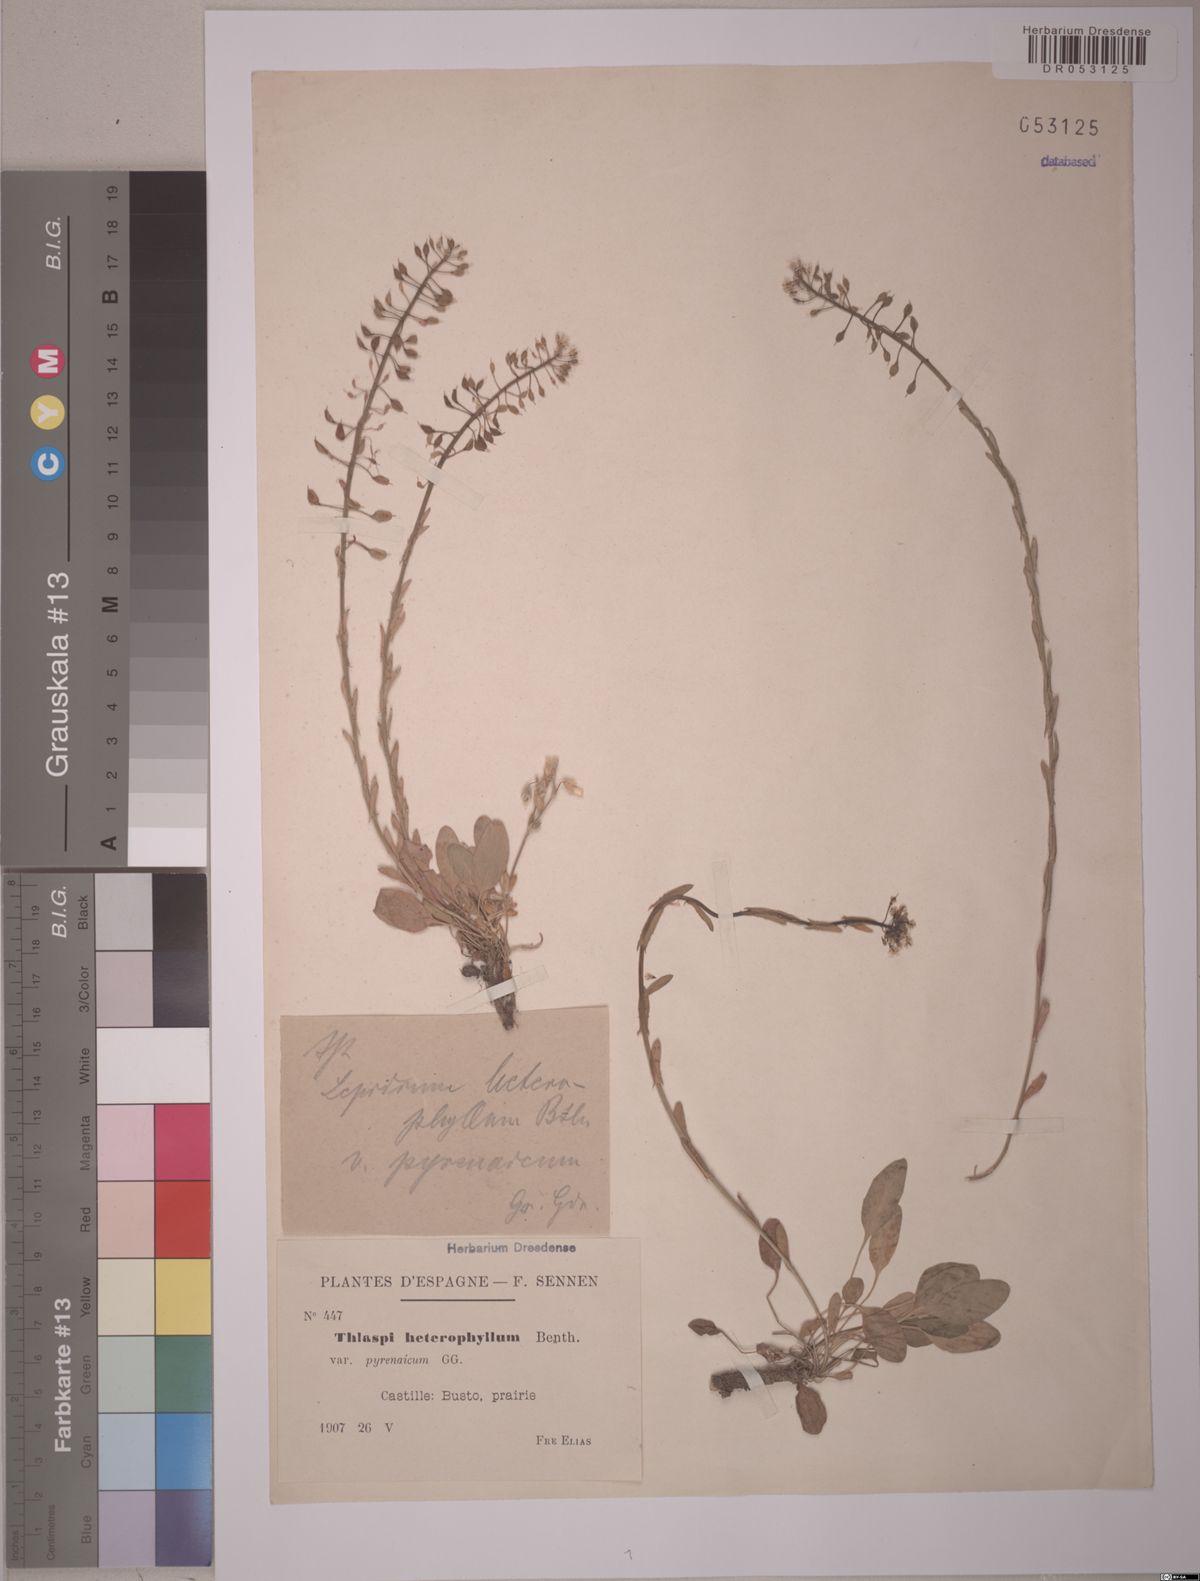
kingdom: Plantae
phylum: Tracheophyta
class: Magnoliopsida
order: Brassicales
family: Brassicaceae
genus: Lepidium
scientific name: Lepidium heterophyllum
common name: Smith's pepperwort
